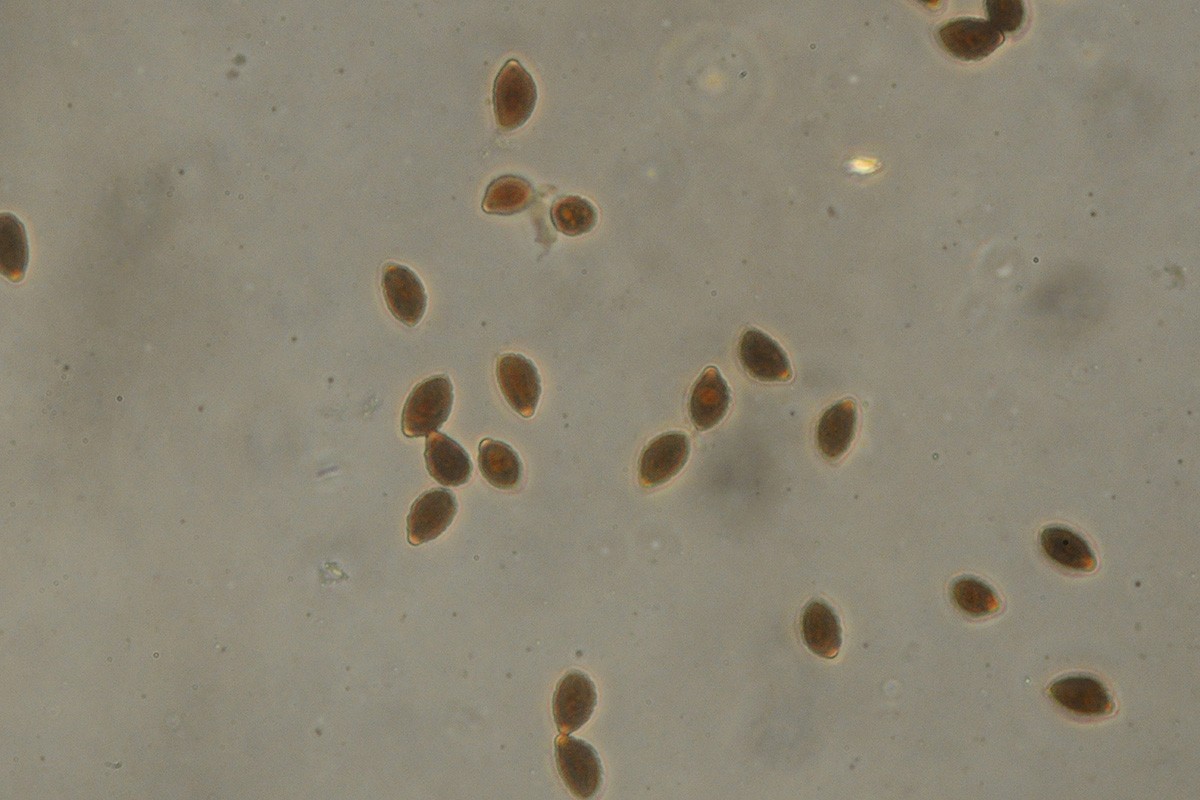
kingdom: Fungi
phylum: Basidiomycota
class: Agaricomycetes
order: Agaricales
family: Psathyrellaceae
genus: Coprinopsis
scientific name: Coprinopsis insignis
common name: stor blækhat
